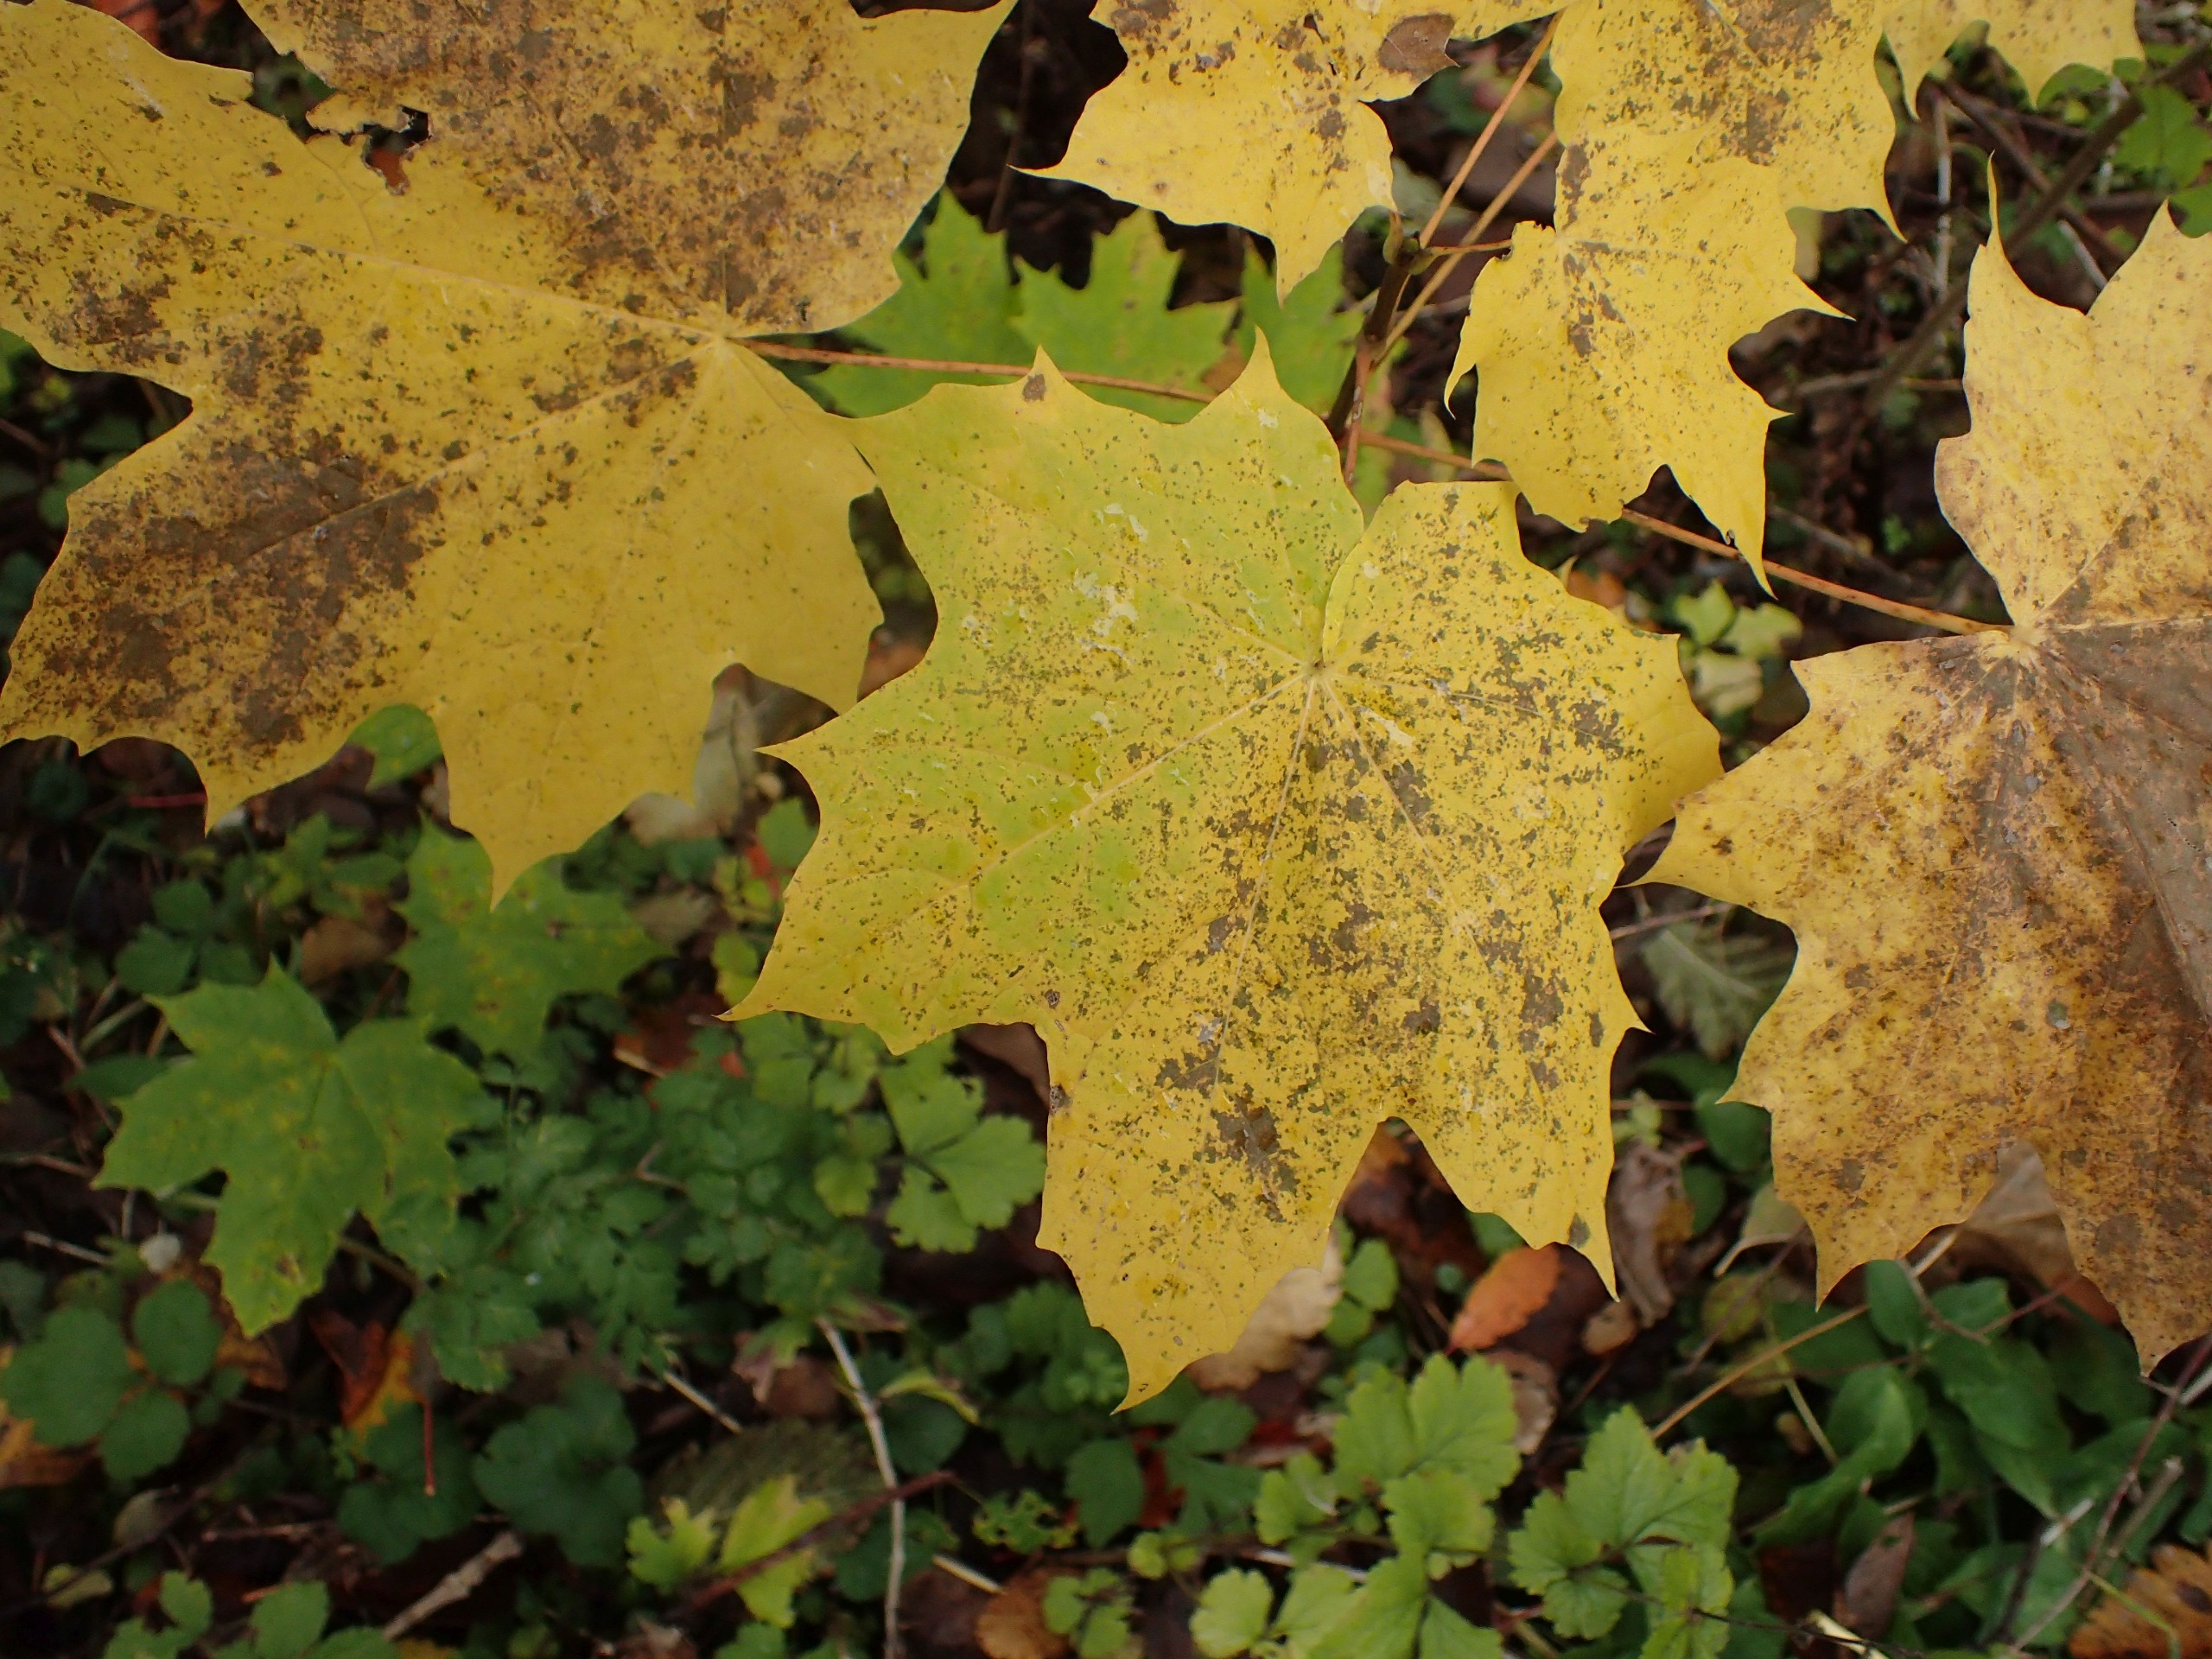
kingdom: Plantae
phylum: Tracheophyta
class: Magnoliopsida
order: Sapindales
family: Sapindaceae
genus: Acer
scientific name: Acer platanoides
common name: Spids-løn
